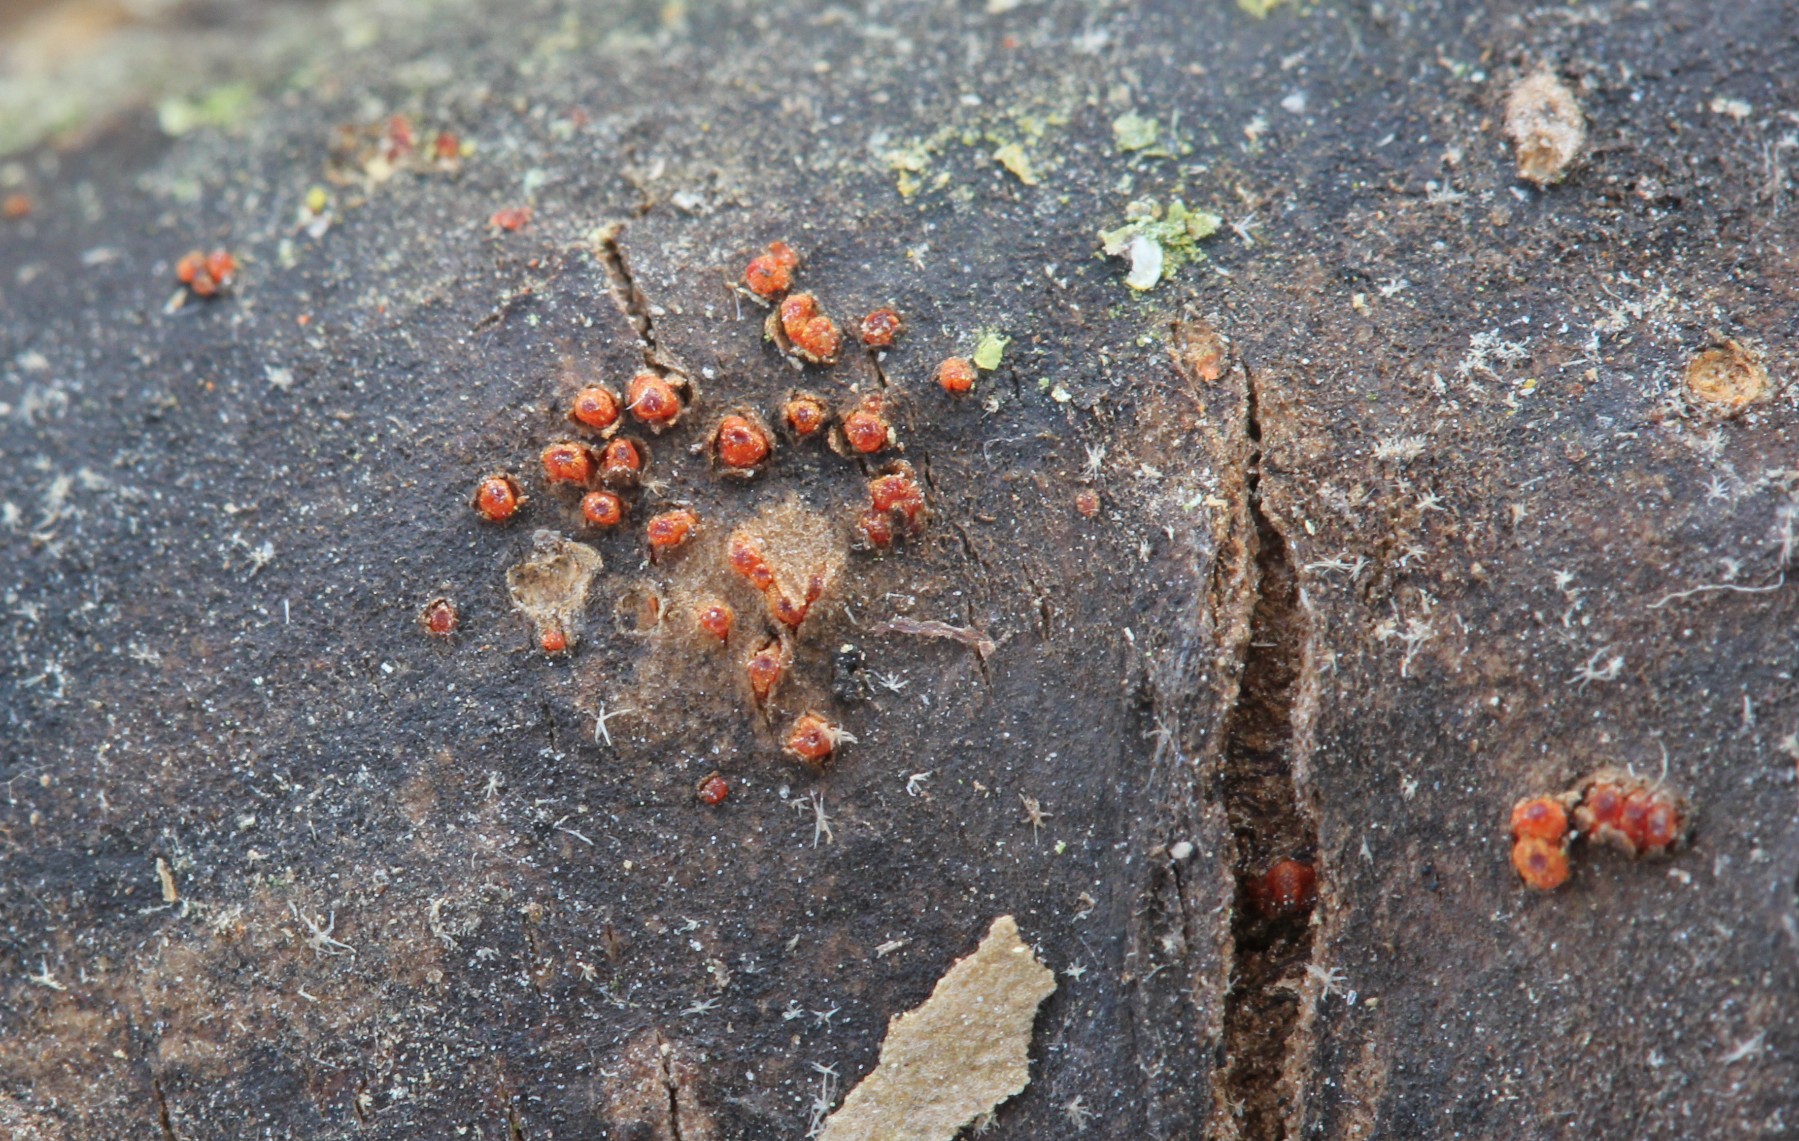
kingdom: Fungi
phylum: Ascomycota
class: Sordariomycetes
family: Thyridiaceae
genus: Thyronectria
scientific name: Thyronectria sinopica
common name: vedbend-cinnobersvamp
